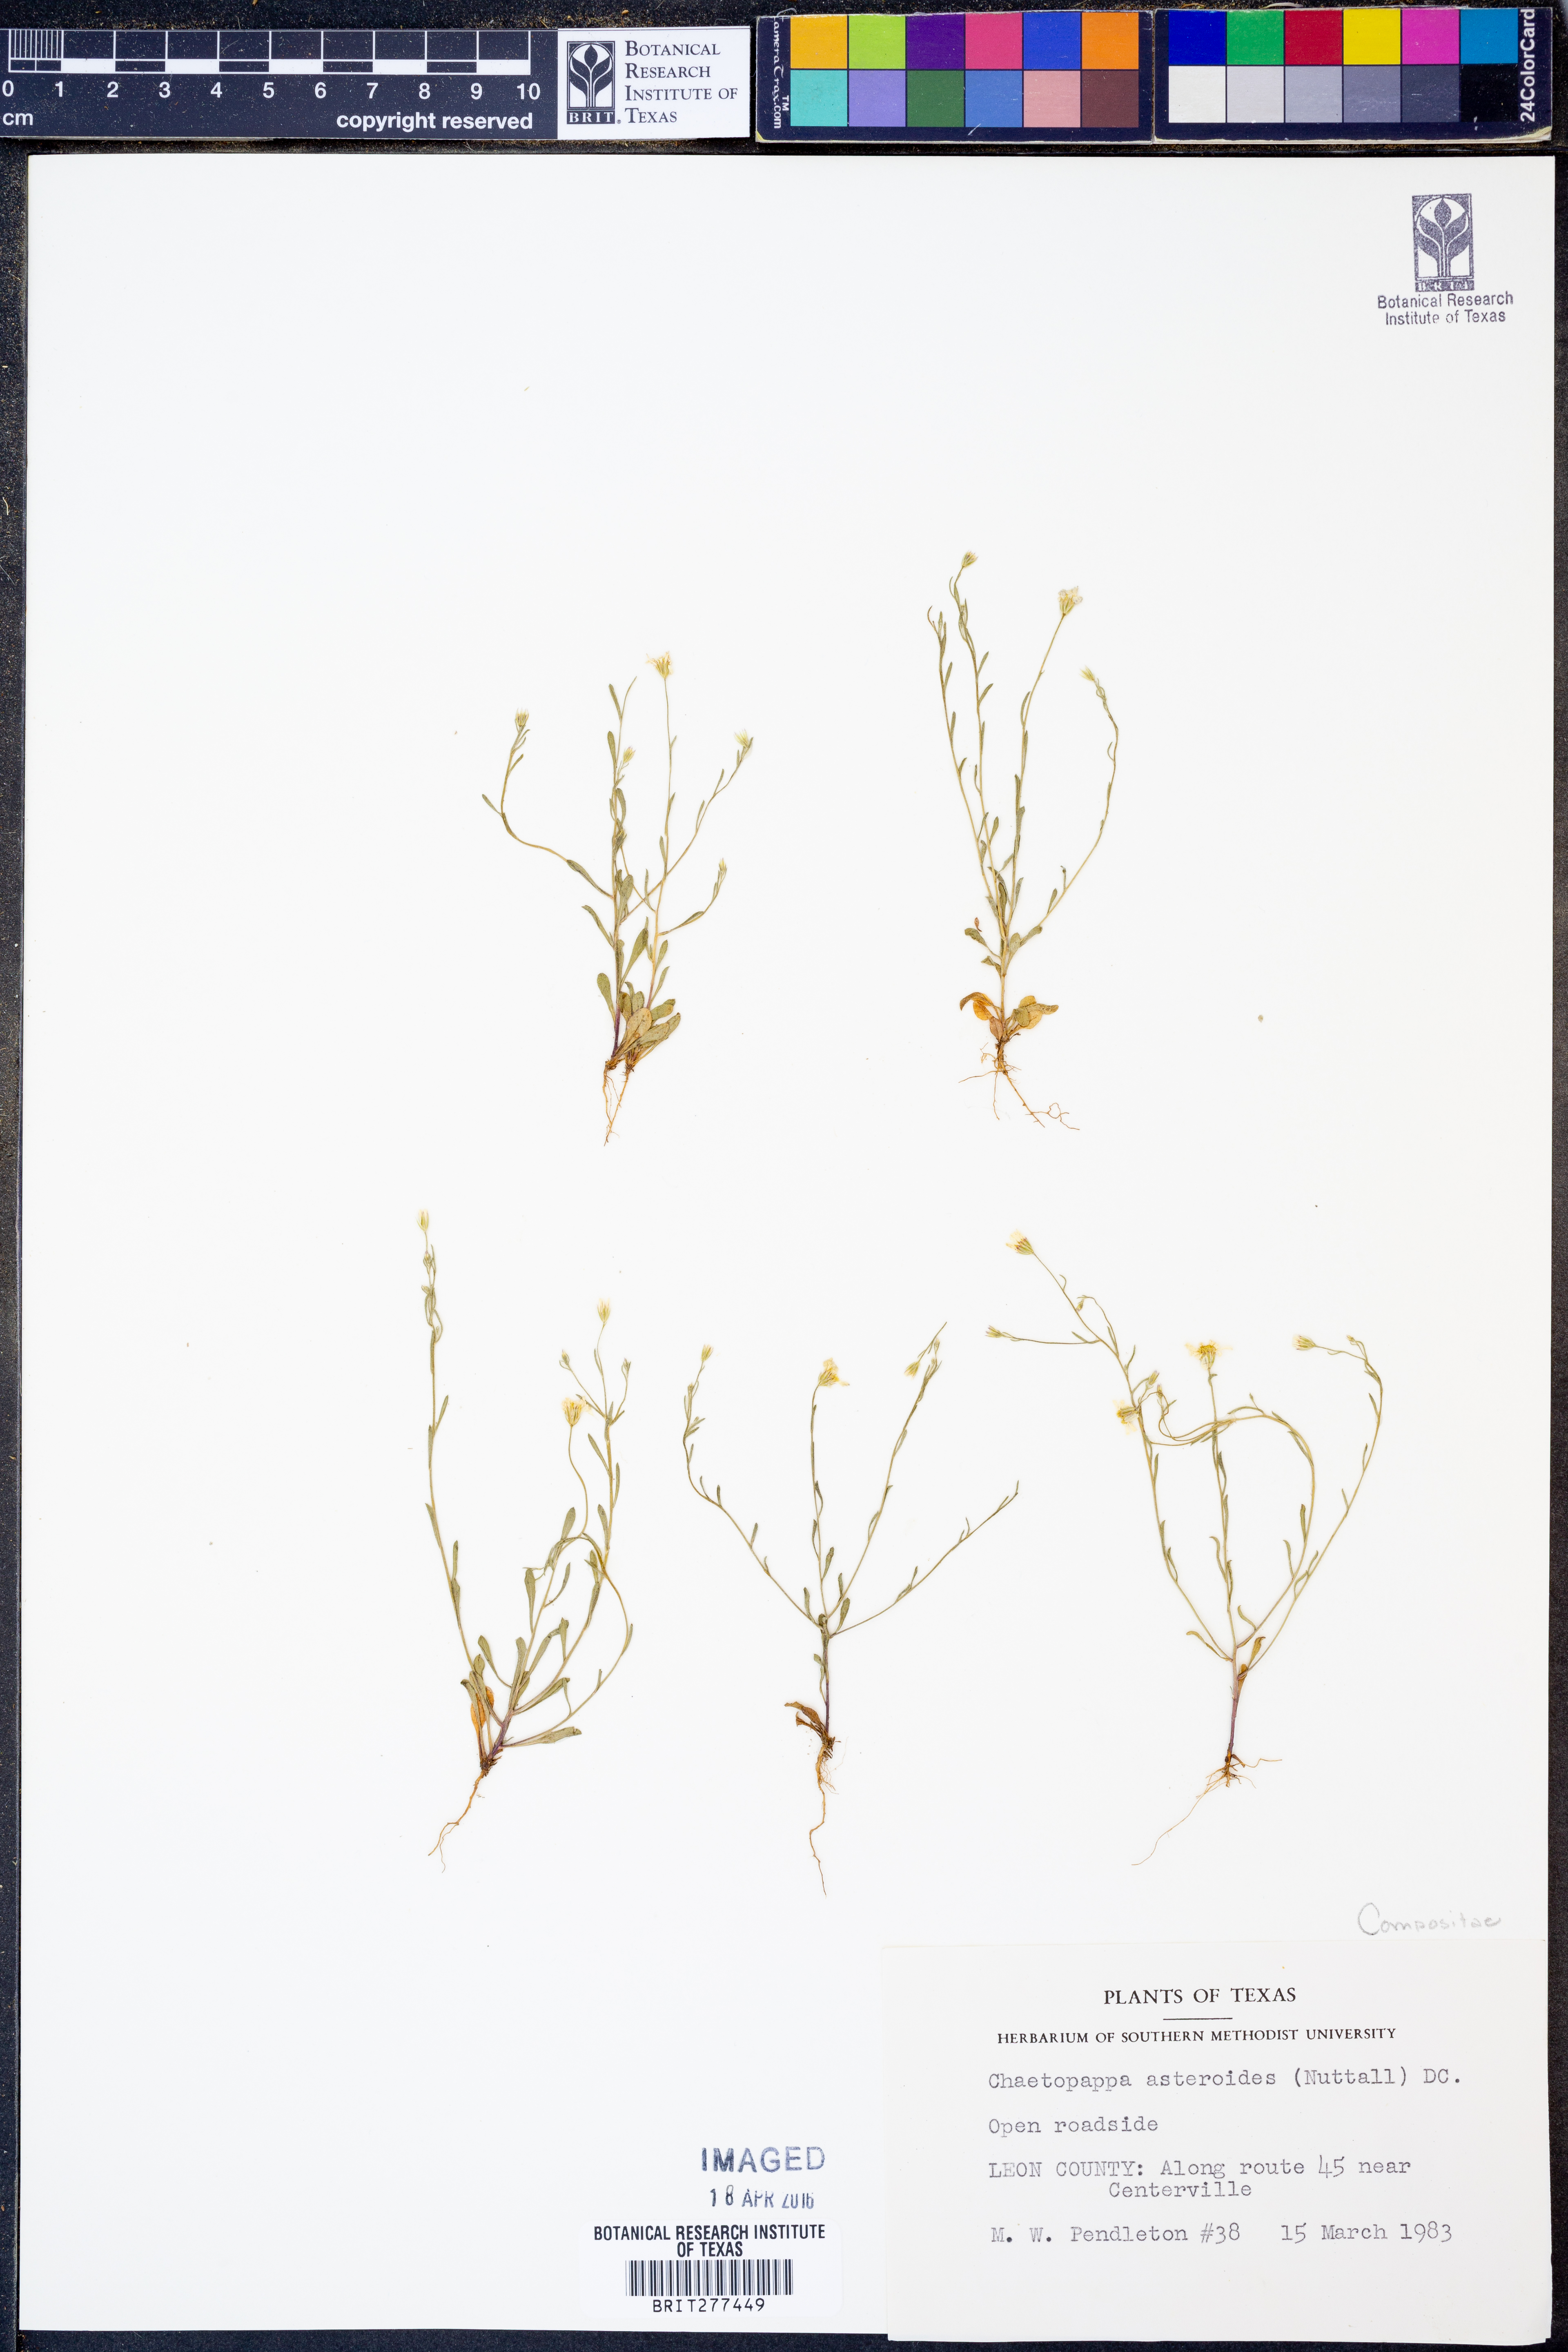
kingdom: Plantae
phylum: Tracheophyta
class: Magnoliopsida
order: Asterales
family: Asteraceae
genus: Chaetopappa
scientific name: Chaetopappa asteroides
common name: Tiny lazy daisy
